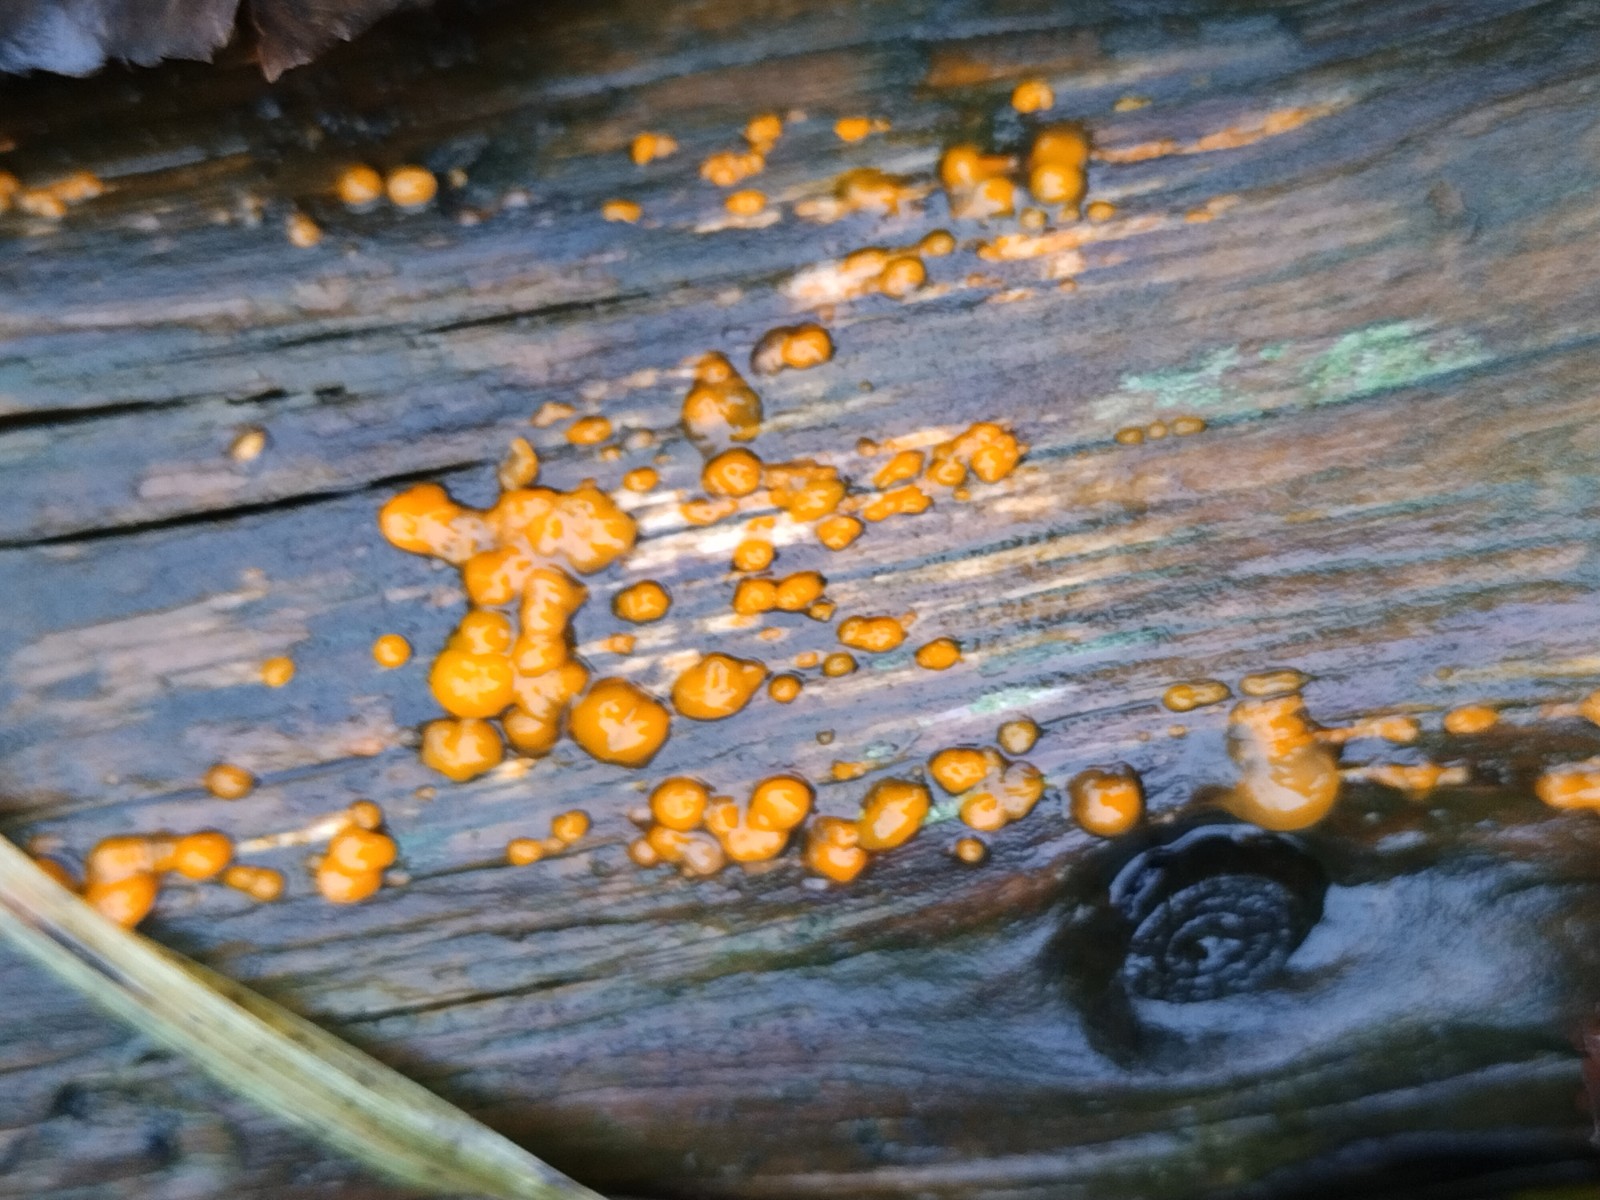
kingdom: Fungi
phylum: Basidiomycota
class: Dacrymycetes
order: Dacrymycetales
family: Dacrymycetaceae
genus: Dacrymyces
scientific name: Dacrymyces stillatus
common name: almindelig tåresvamp
